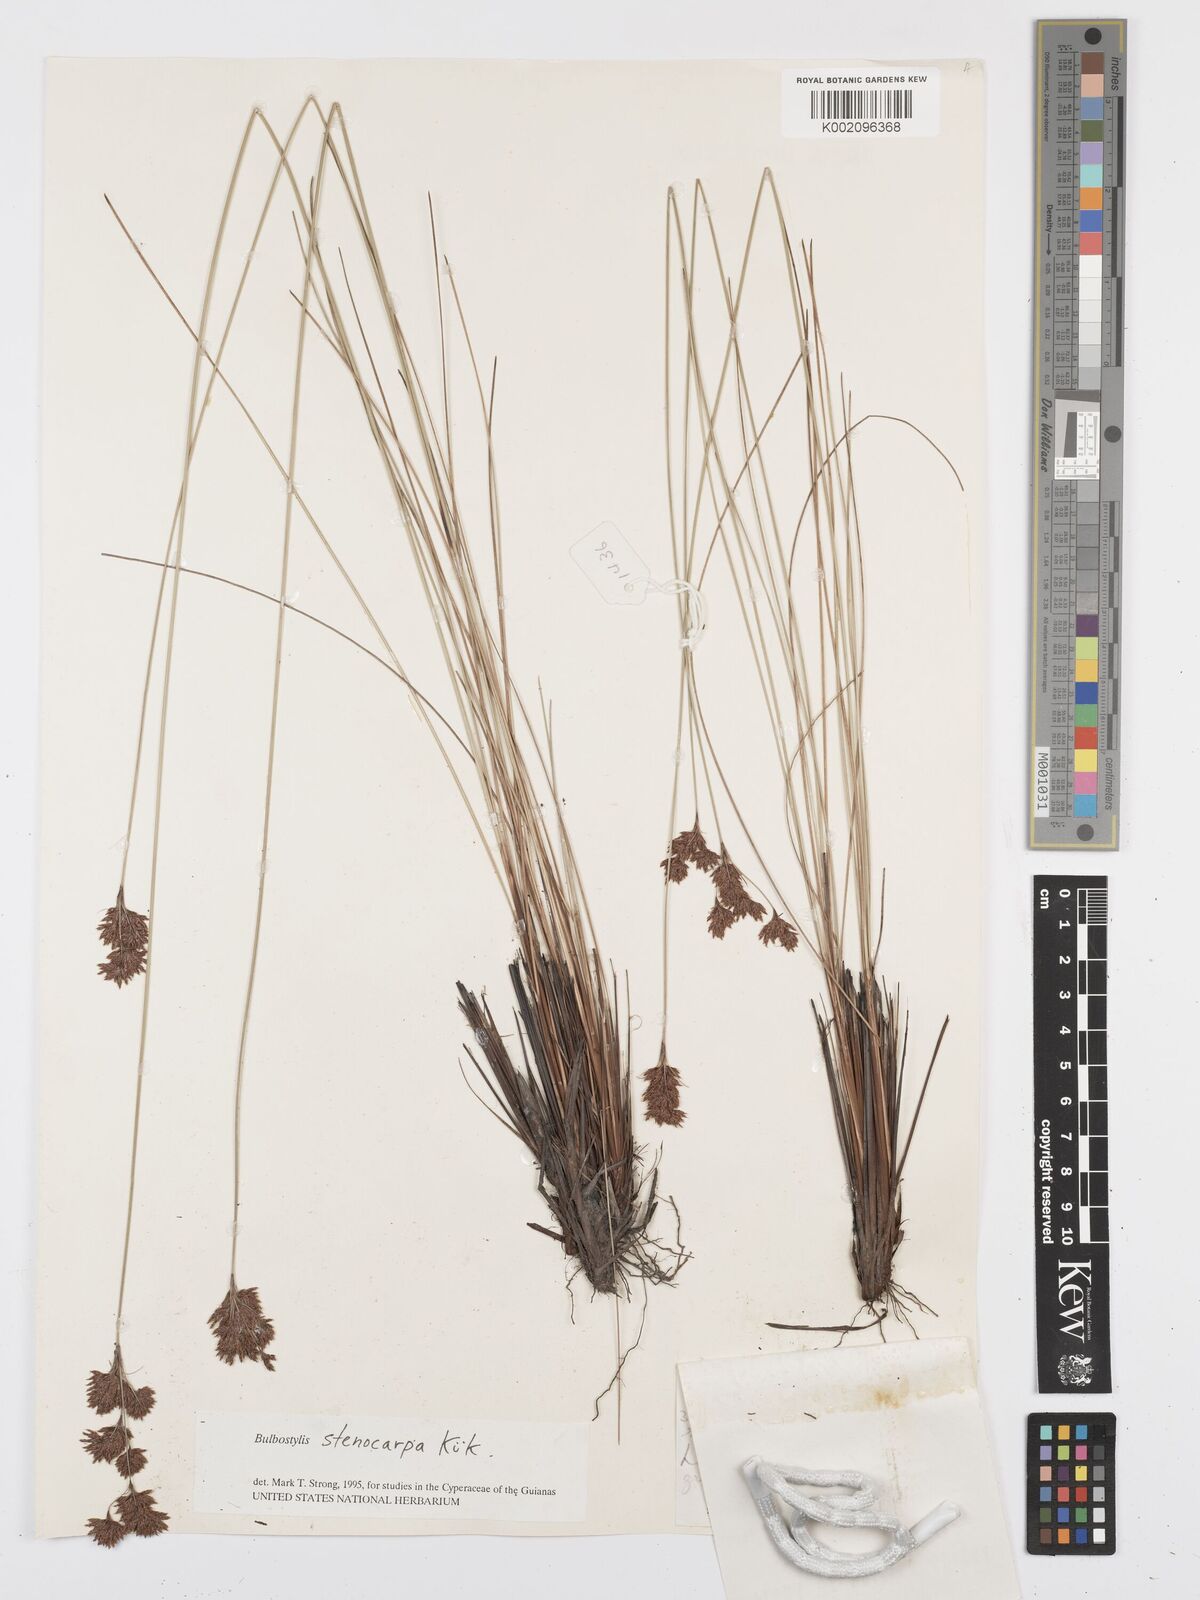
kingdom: Plantae
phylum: Tracheophyta
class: Liliopsida
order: Poales
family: Cyperaceae
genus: Bulbostylis
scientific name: Bulbostylis stenocarpa
